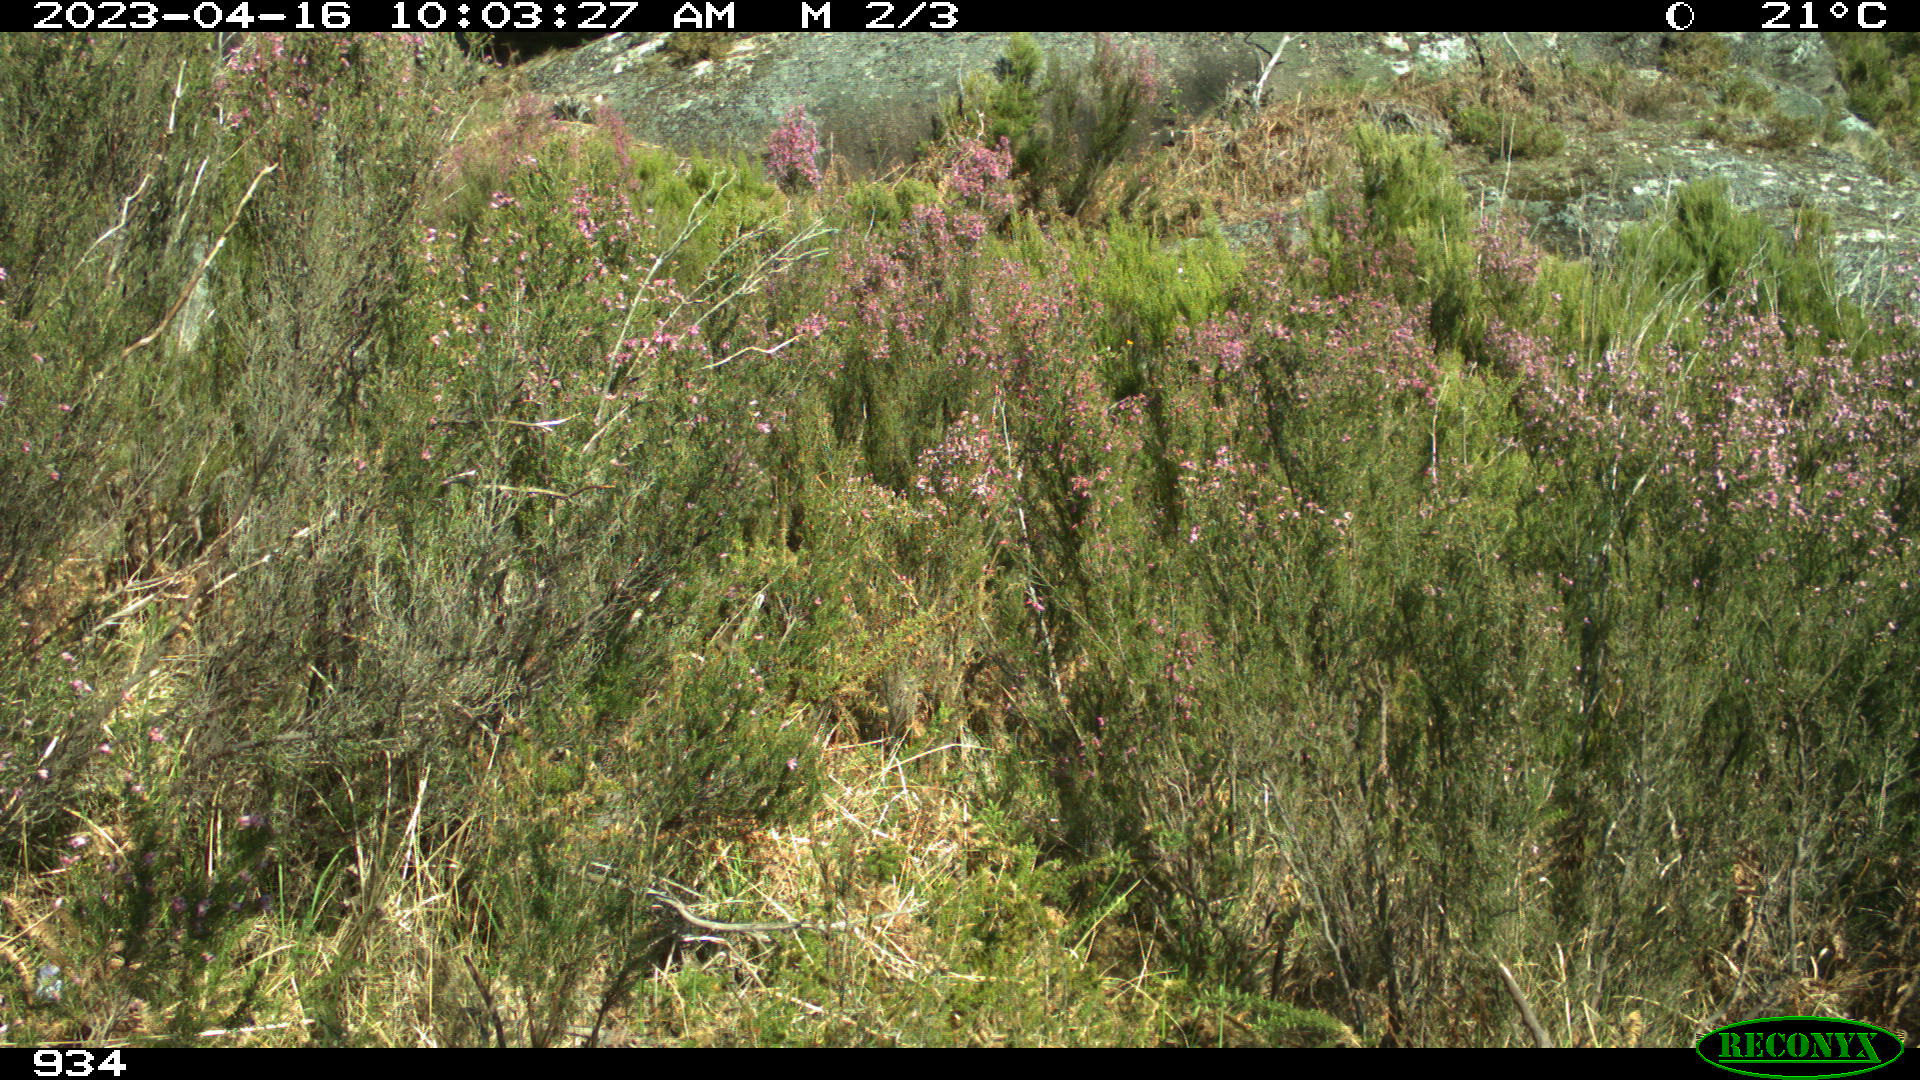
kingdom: Animalia
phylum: Chordata
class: Mammalia
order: Artiodactyla
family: Cervidae
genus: Capreolus
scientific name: Capreolus capreolus
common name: Western roe deer
